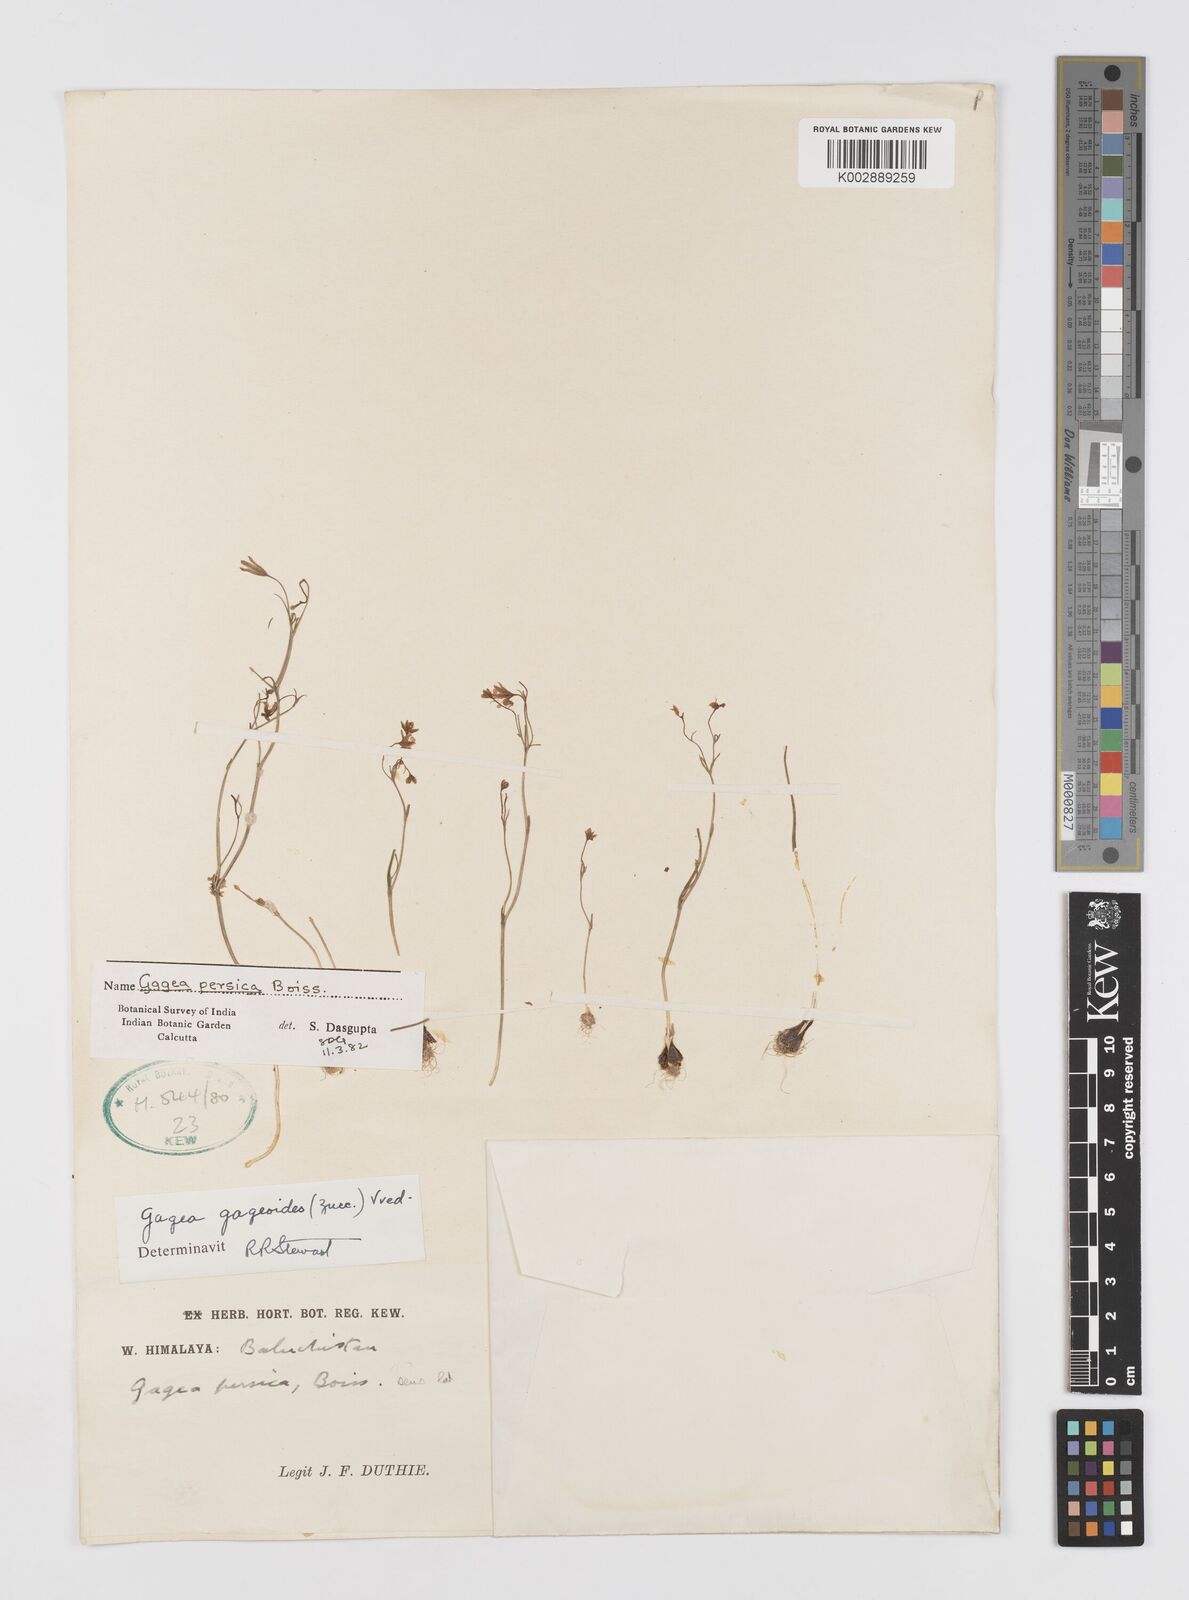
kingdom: Plantae
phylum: Tracheophyta
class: Liliopsida
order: Liliales
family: Liliaceae
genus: Gagea
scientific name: Gagea gageoides
